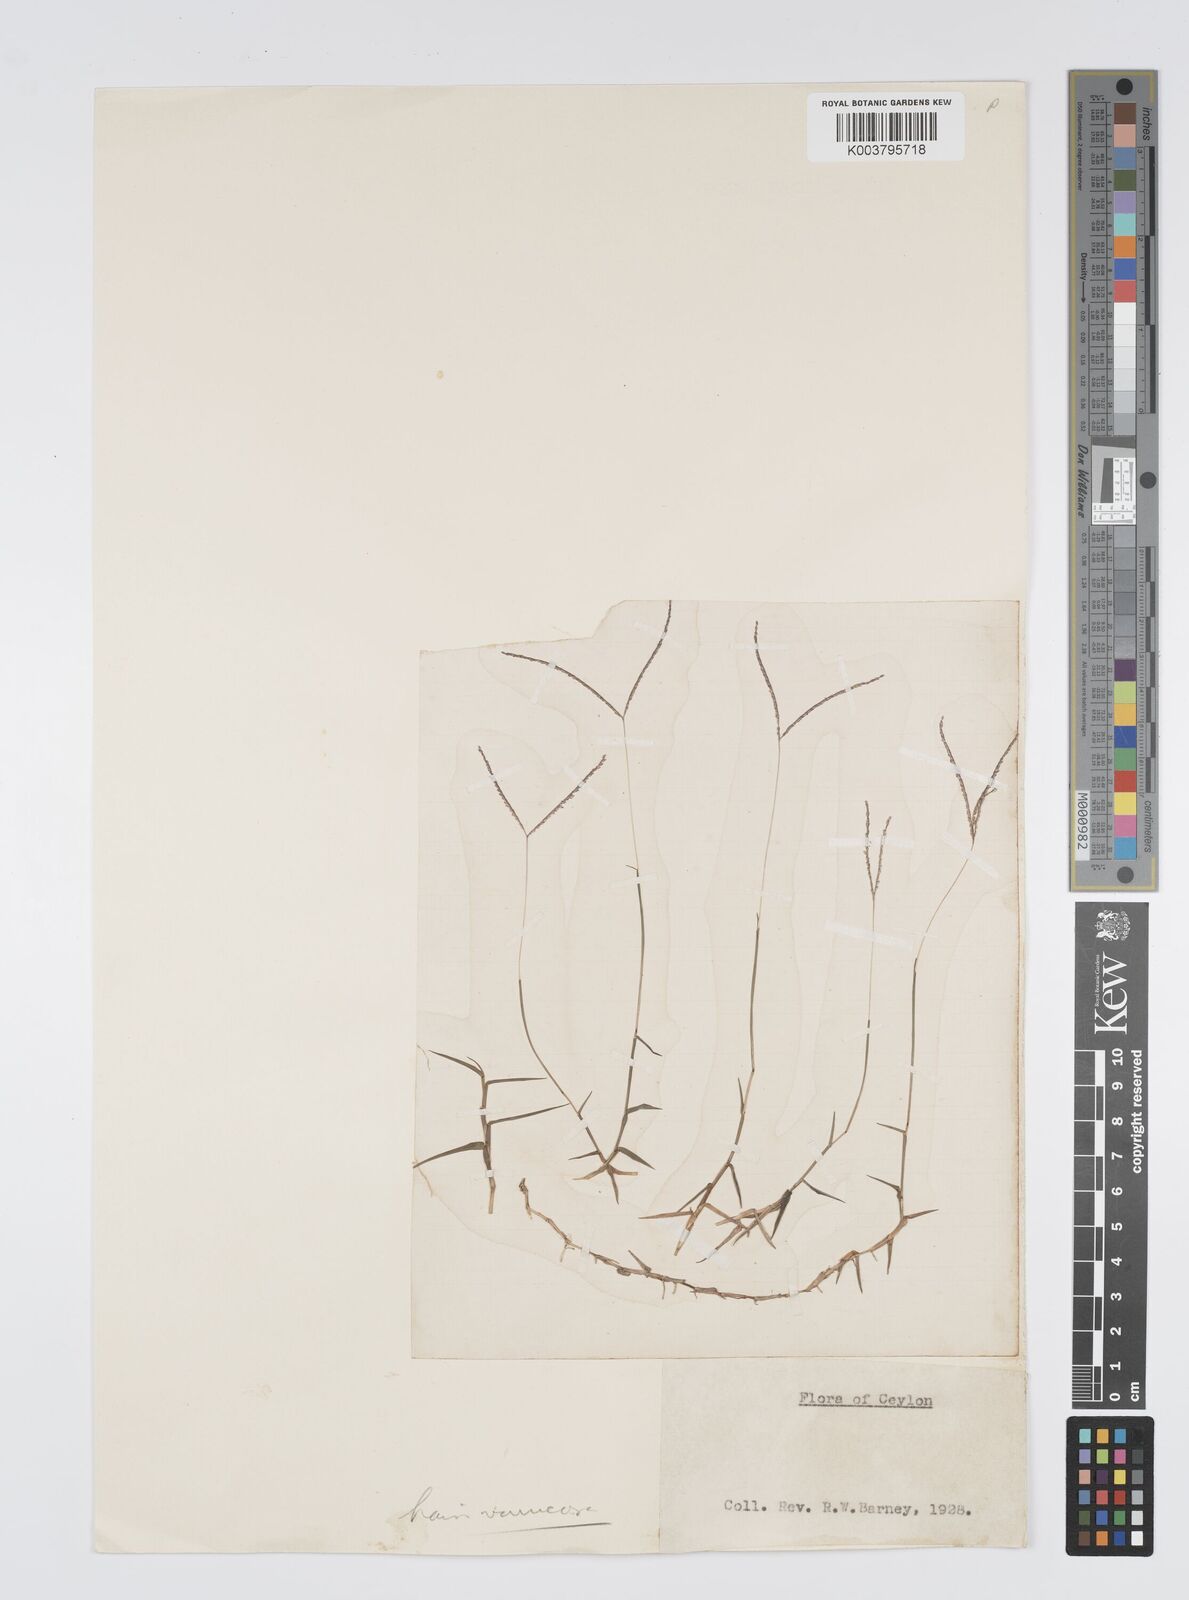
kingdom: Plantae
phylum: Tracheophyta
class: Liliopsida
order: Poales
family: Poaceae
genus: Digitaria
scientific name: Digitaria longiflora
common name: Wire crabgrass
